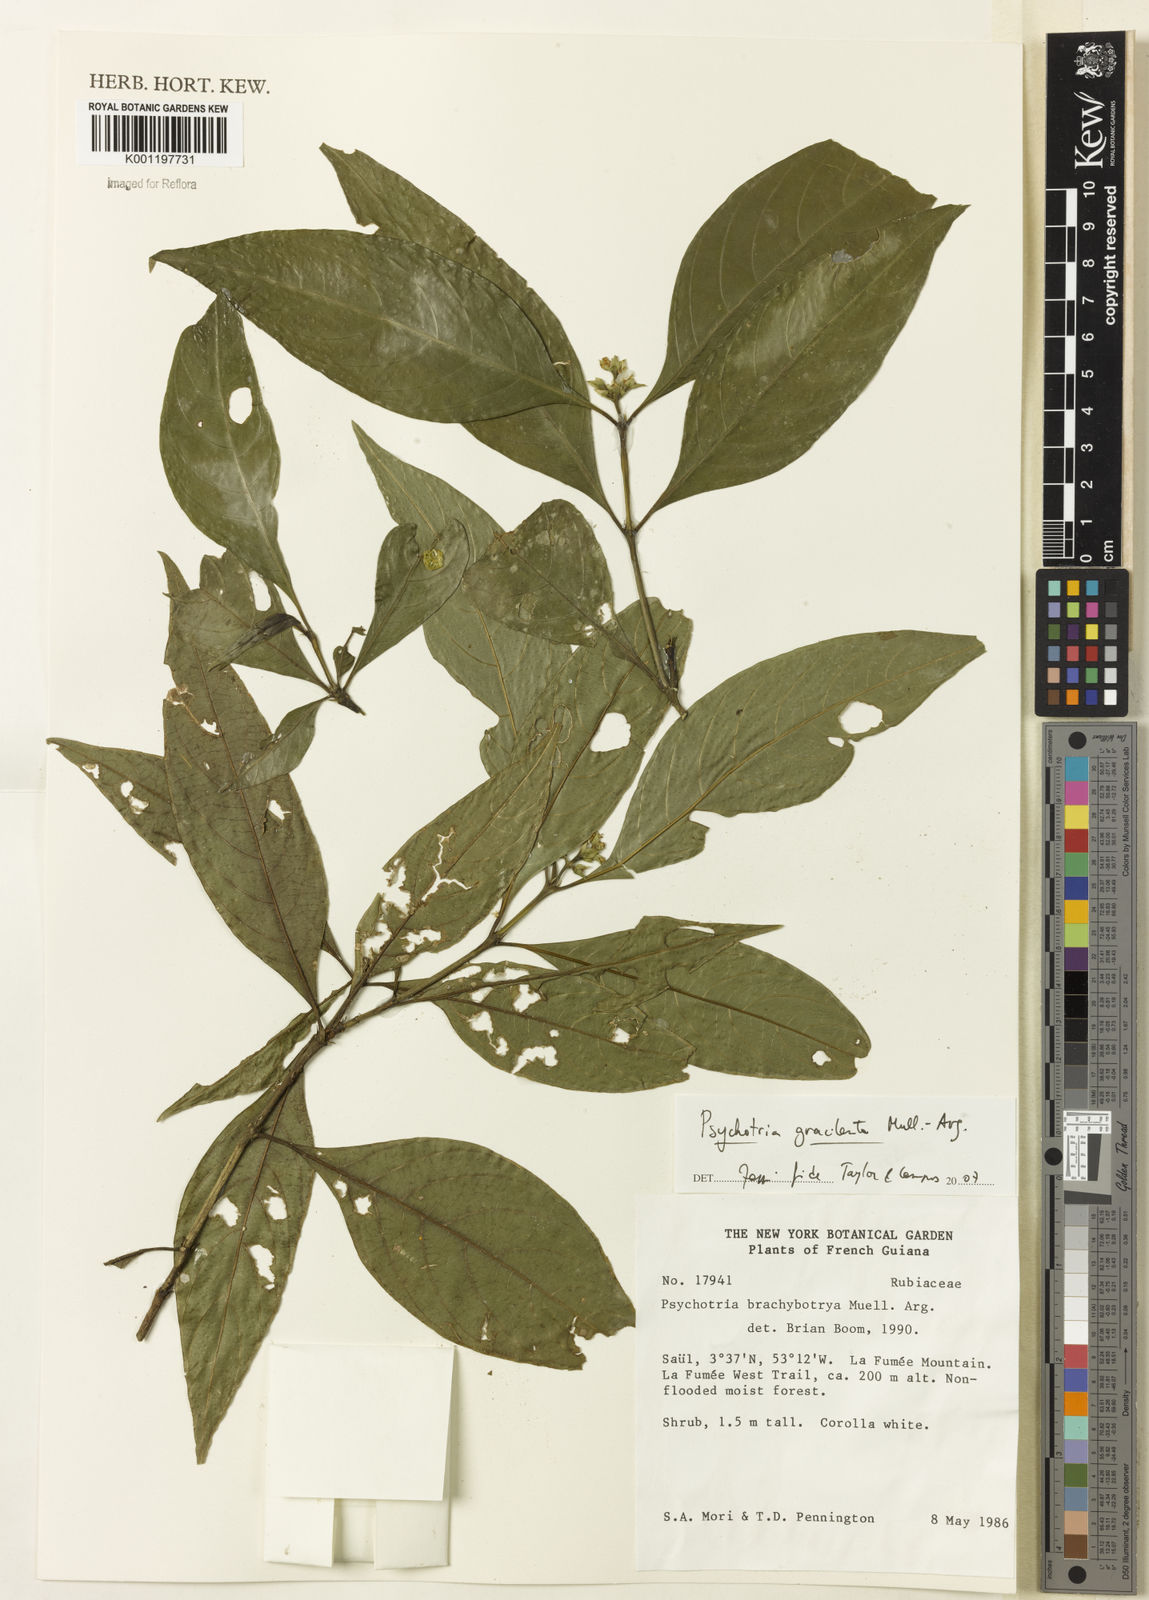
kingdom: Plantae
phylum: Tracheophyta
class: Magnoliopsida
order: Gentianales
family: Rubiaceae
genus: Psychotria
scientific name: Psychotria
